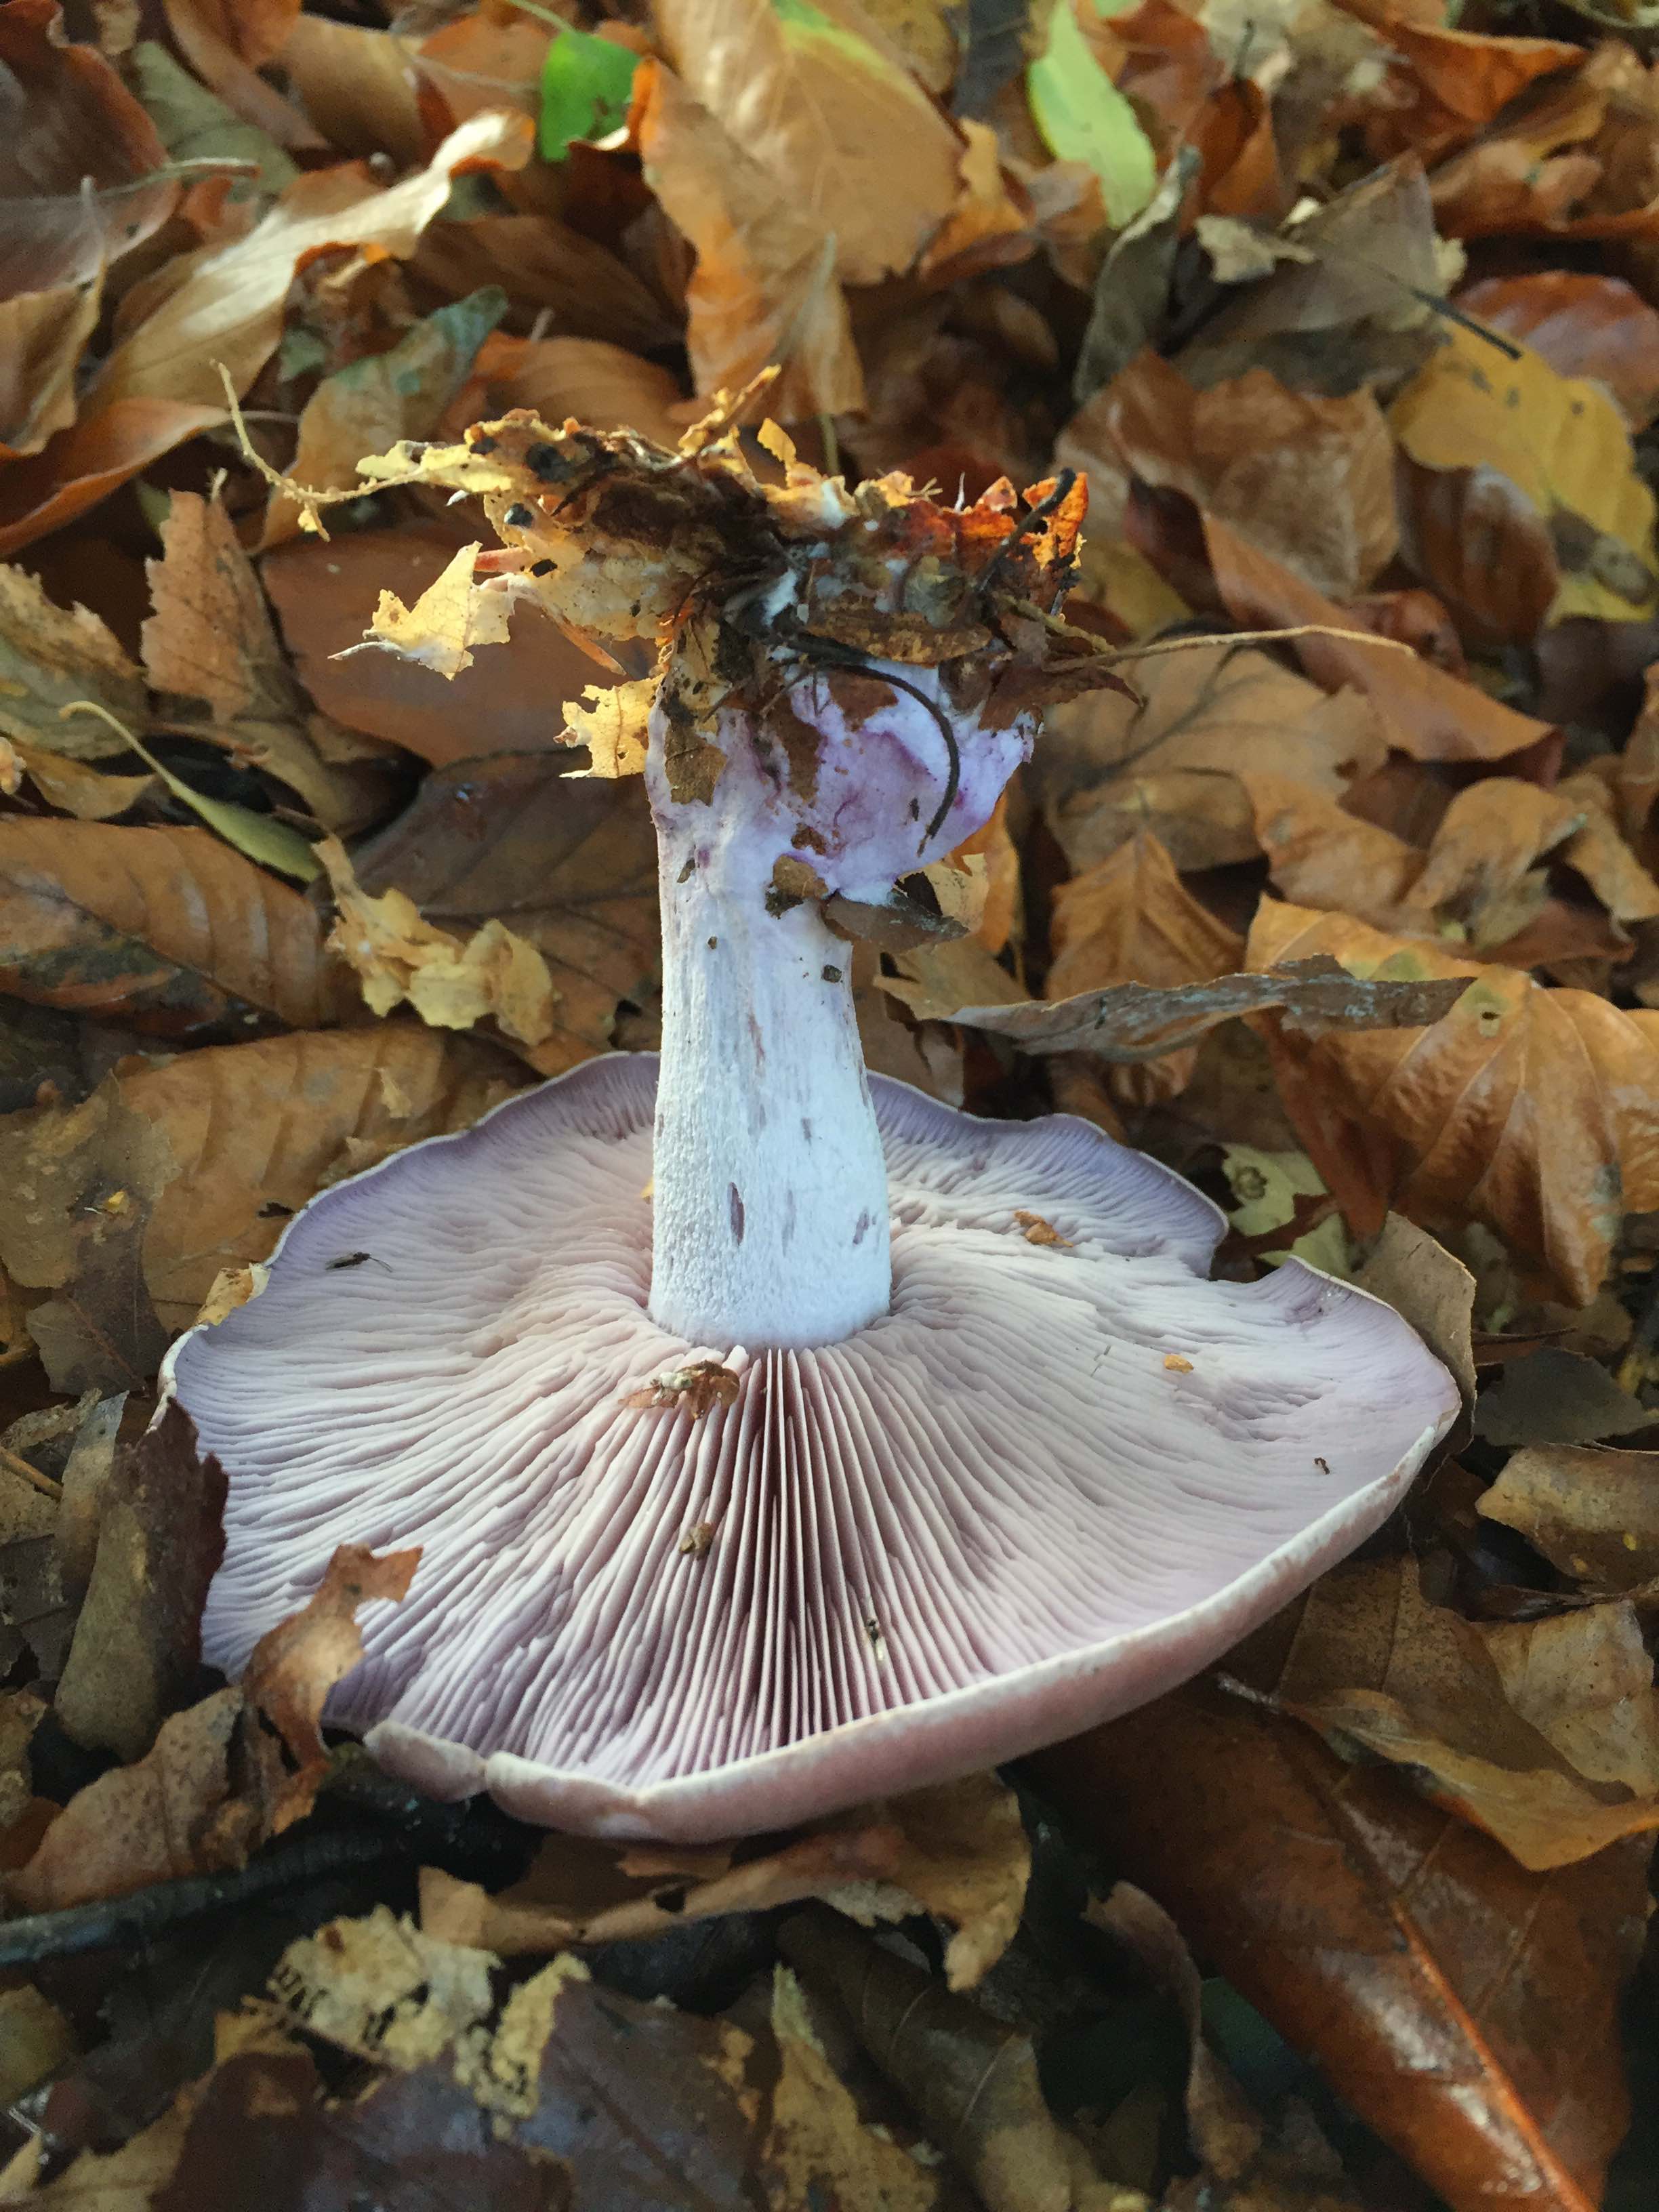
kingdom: Fungi
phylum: Basidiomycota
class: Agaricomycetes
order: Agaricales
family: Tricholomataceae
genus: Lepista
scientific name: Lepista personata
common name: bleg hekseringshat
